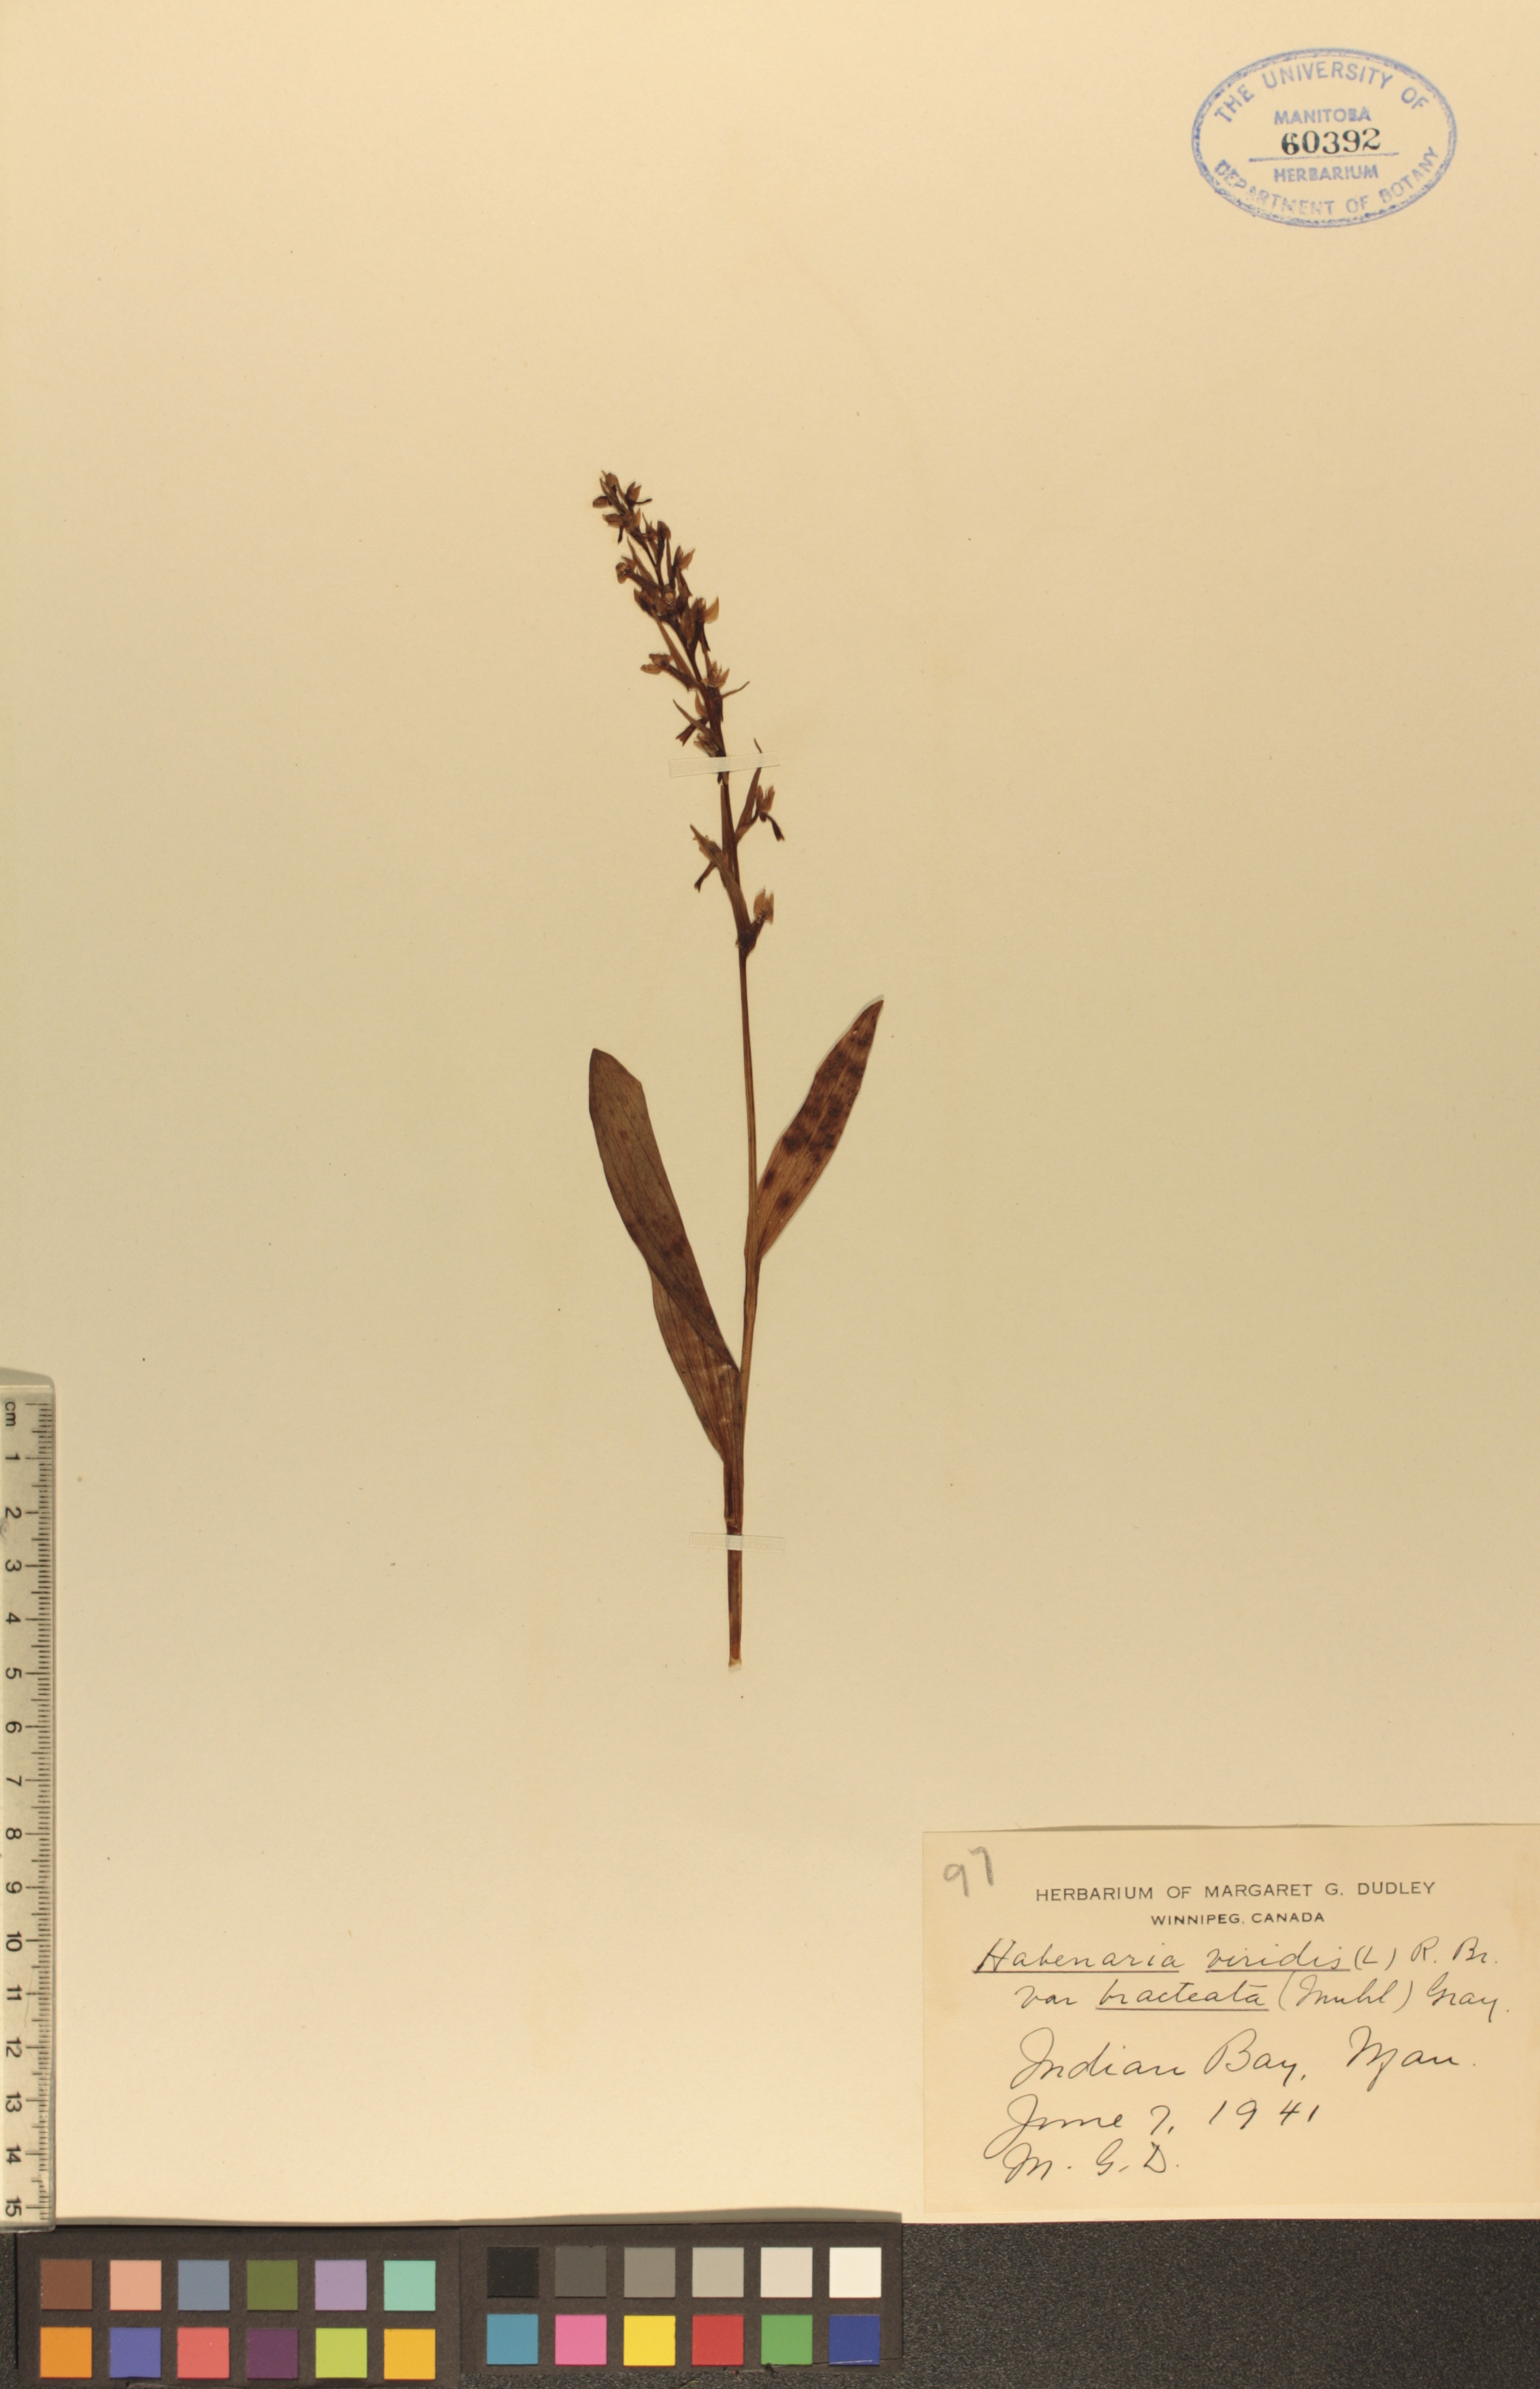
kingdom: Plantae
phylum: Tracheophyta
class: Liliopsida
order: Asparagales
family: Orchidaceae
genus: Dactylorhiza
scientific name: Dactylorhiza viridis
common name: Longbract frog orchid
